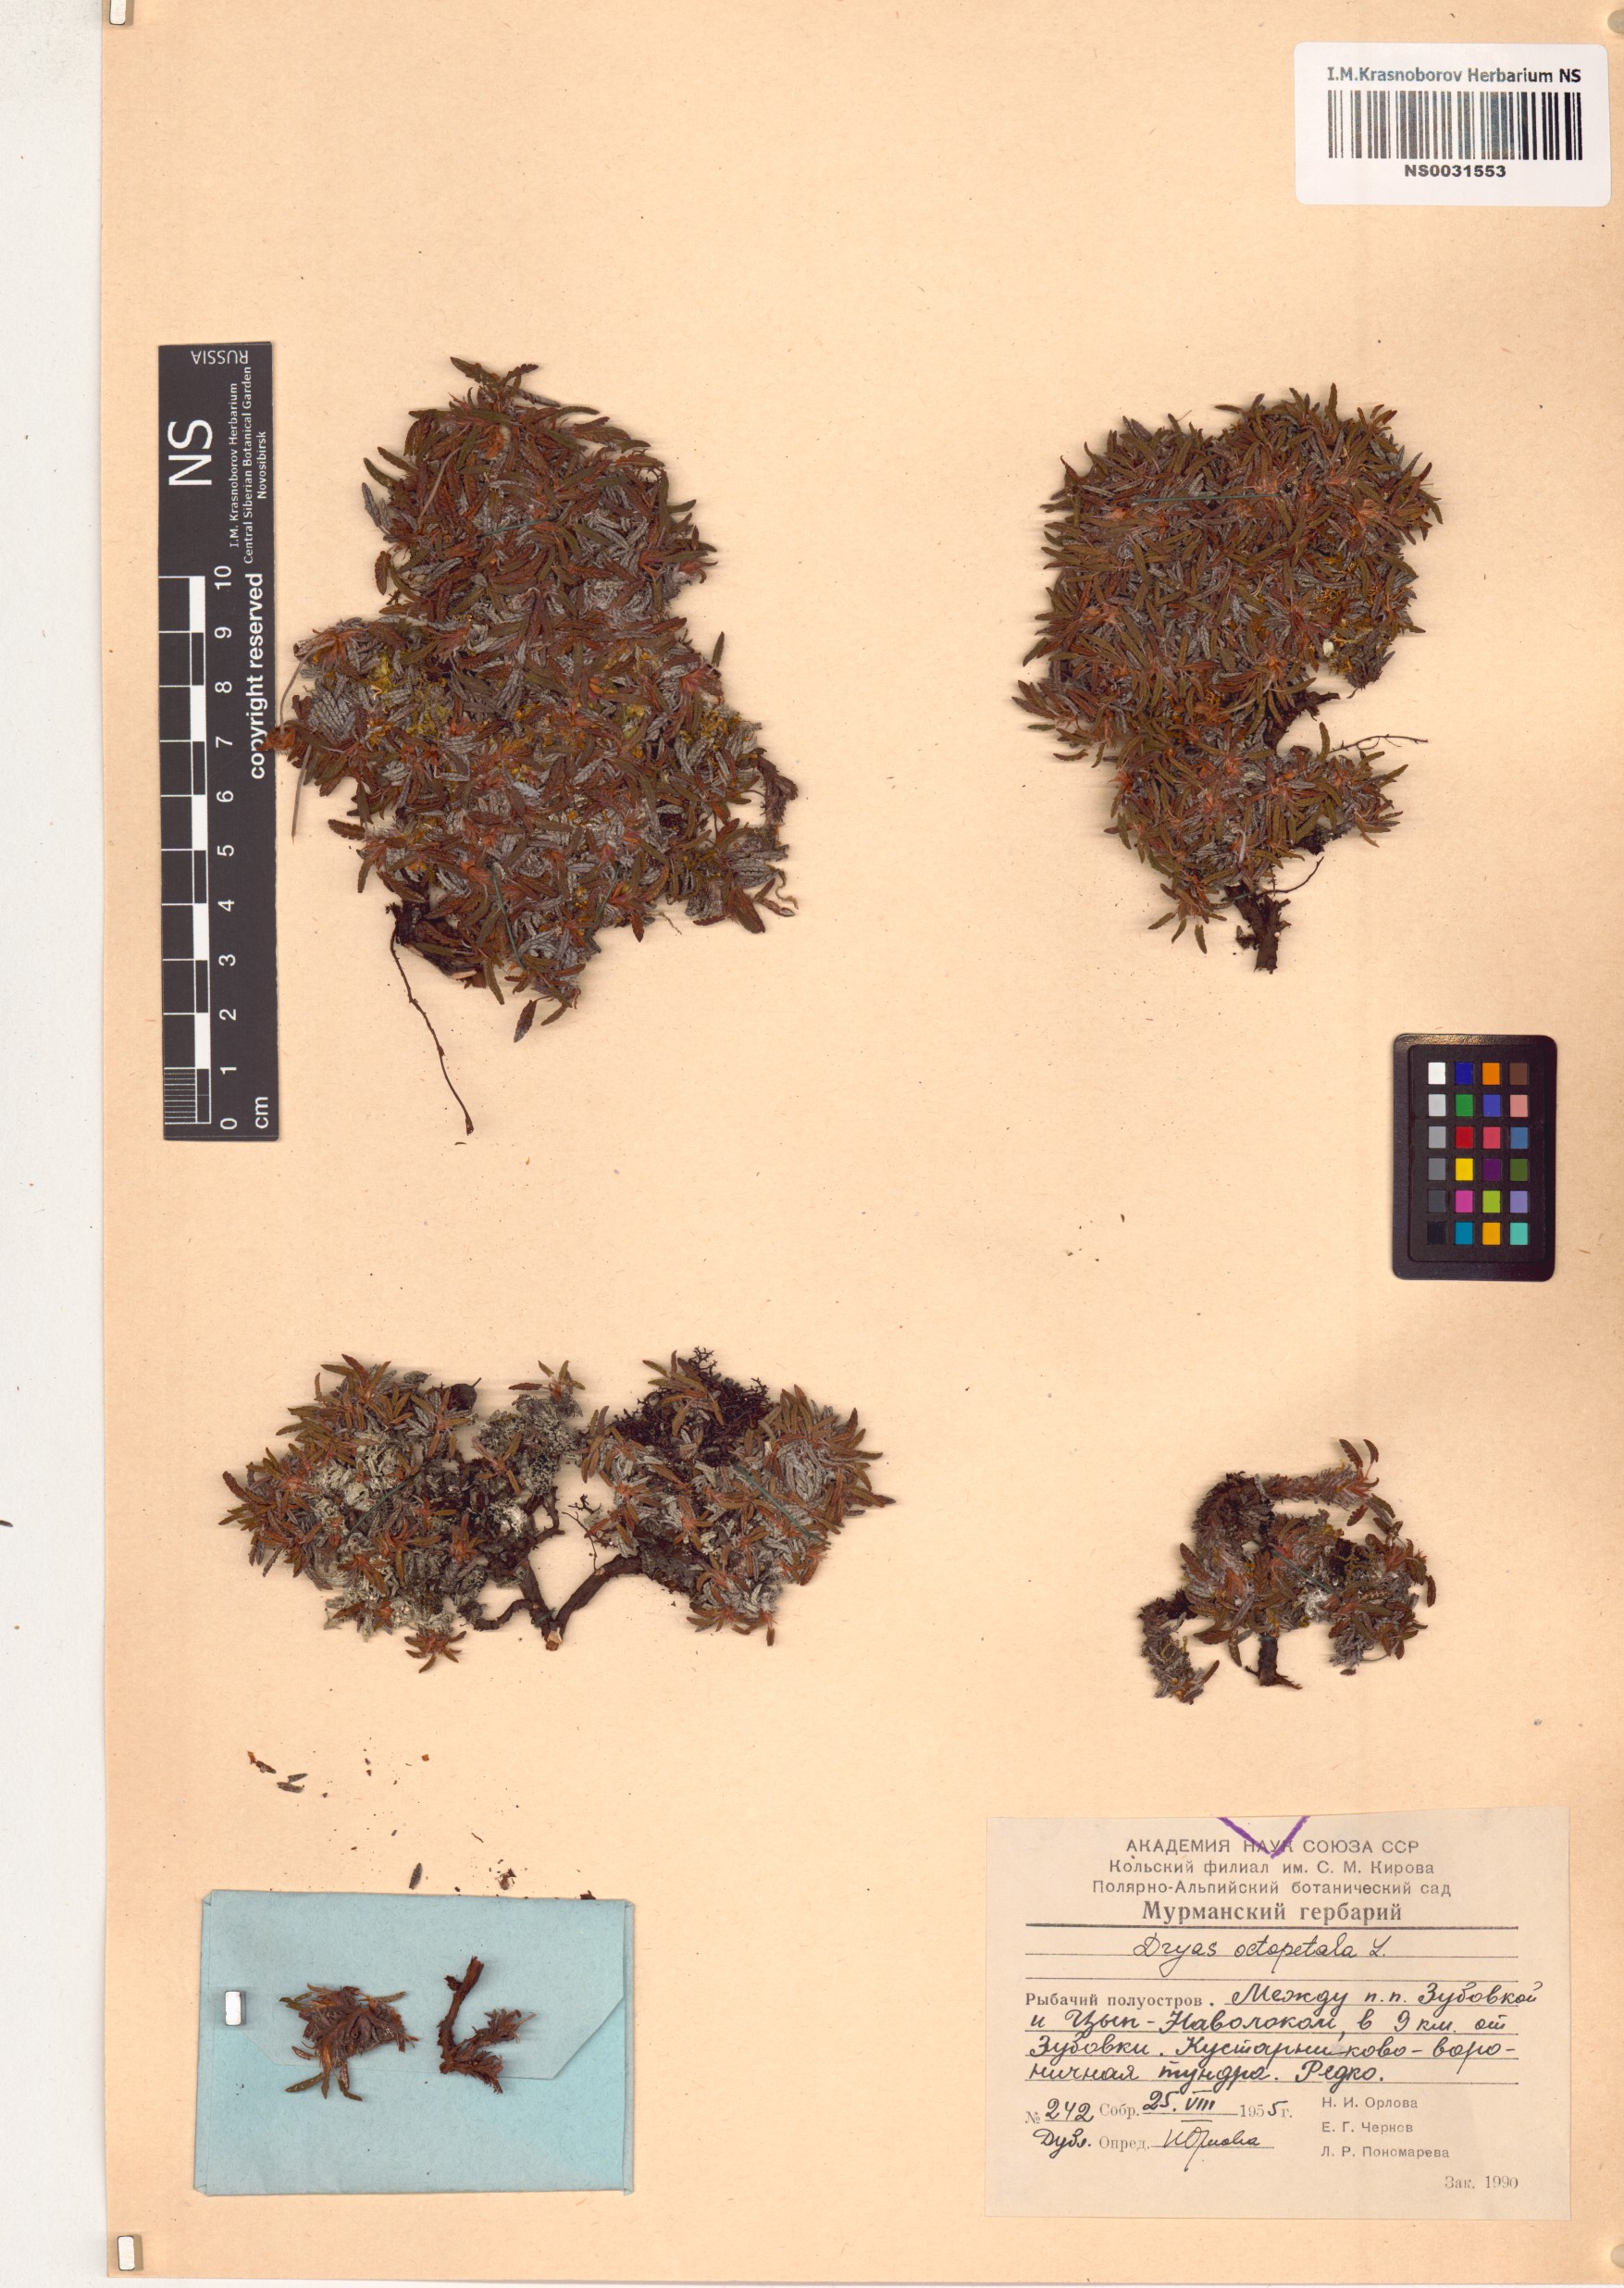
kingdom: Plantae
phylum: Tracheophyta
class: Magnoliopsida
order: Rosales
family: Rosaceae
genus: Dryas
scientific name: Dryas octopetala
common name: Eight-petal mountain-avens
